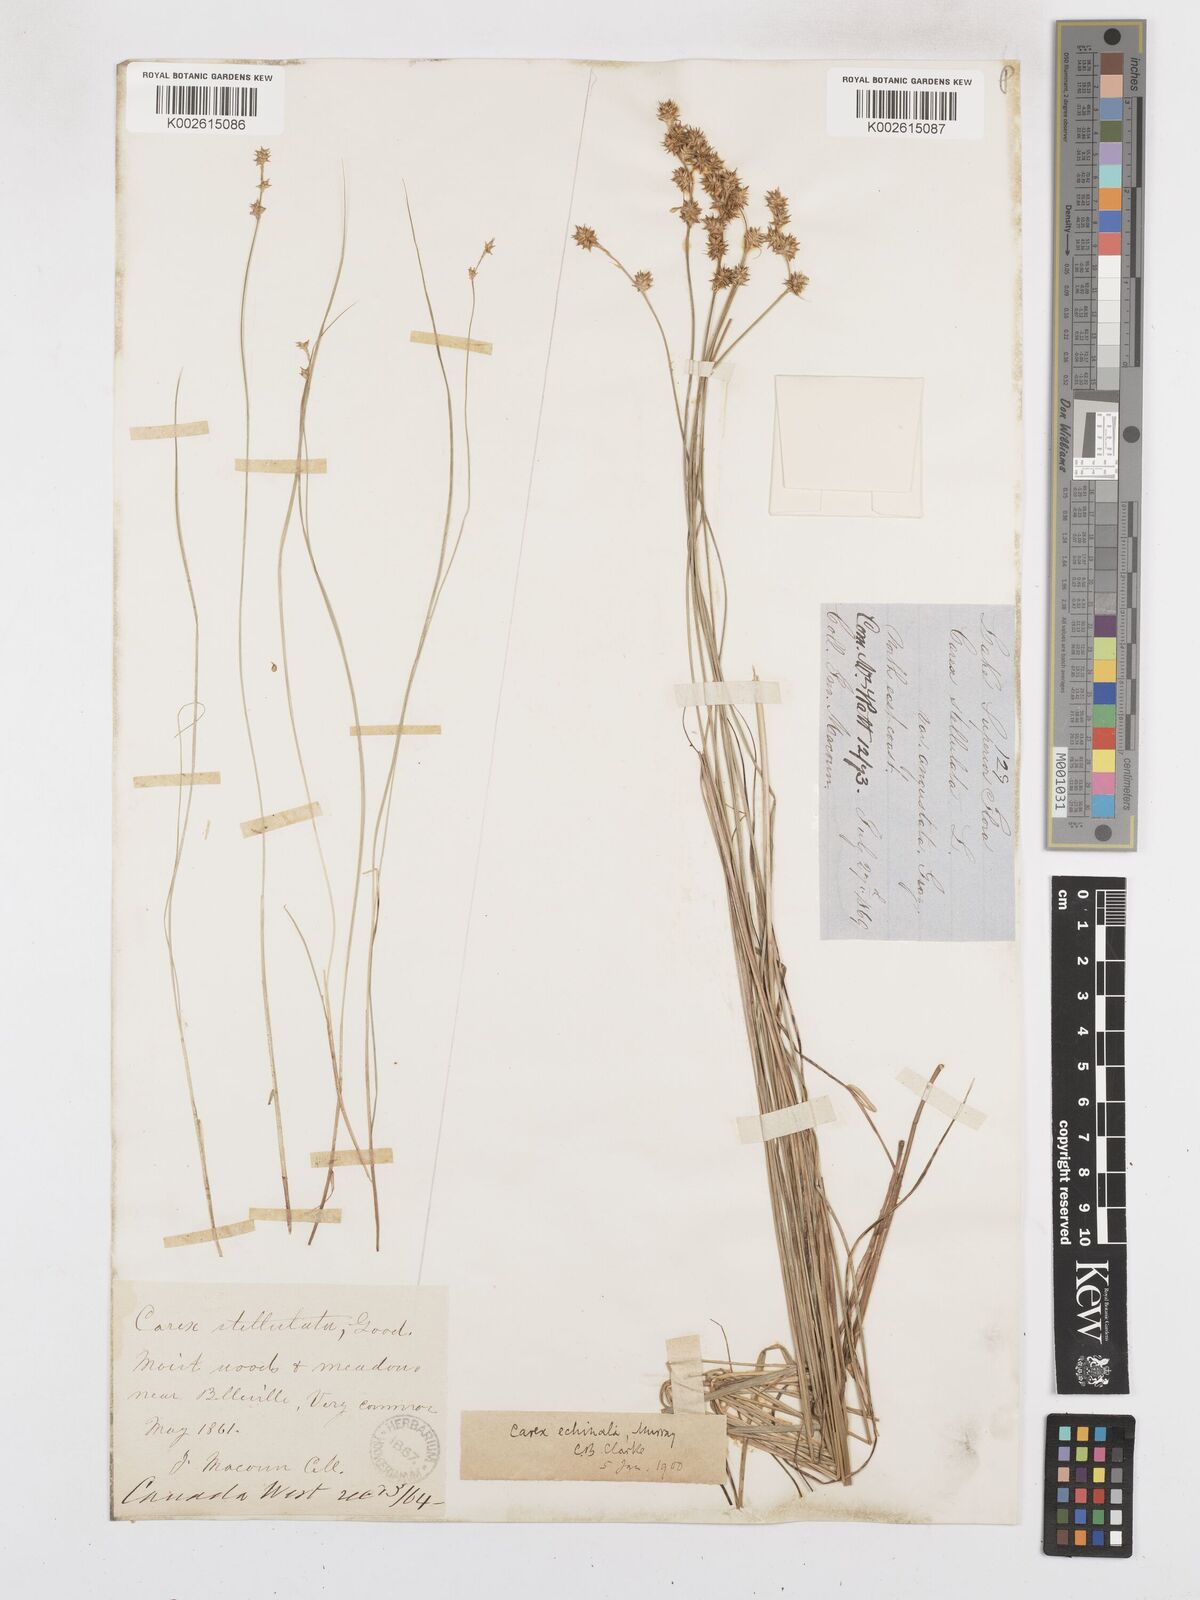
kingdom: Plantae
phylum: Tracheophyta
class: Liliopsida
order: Poales
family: Cyperaceae
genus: Carex
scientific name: Carex echinata
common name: Star sedge
